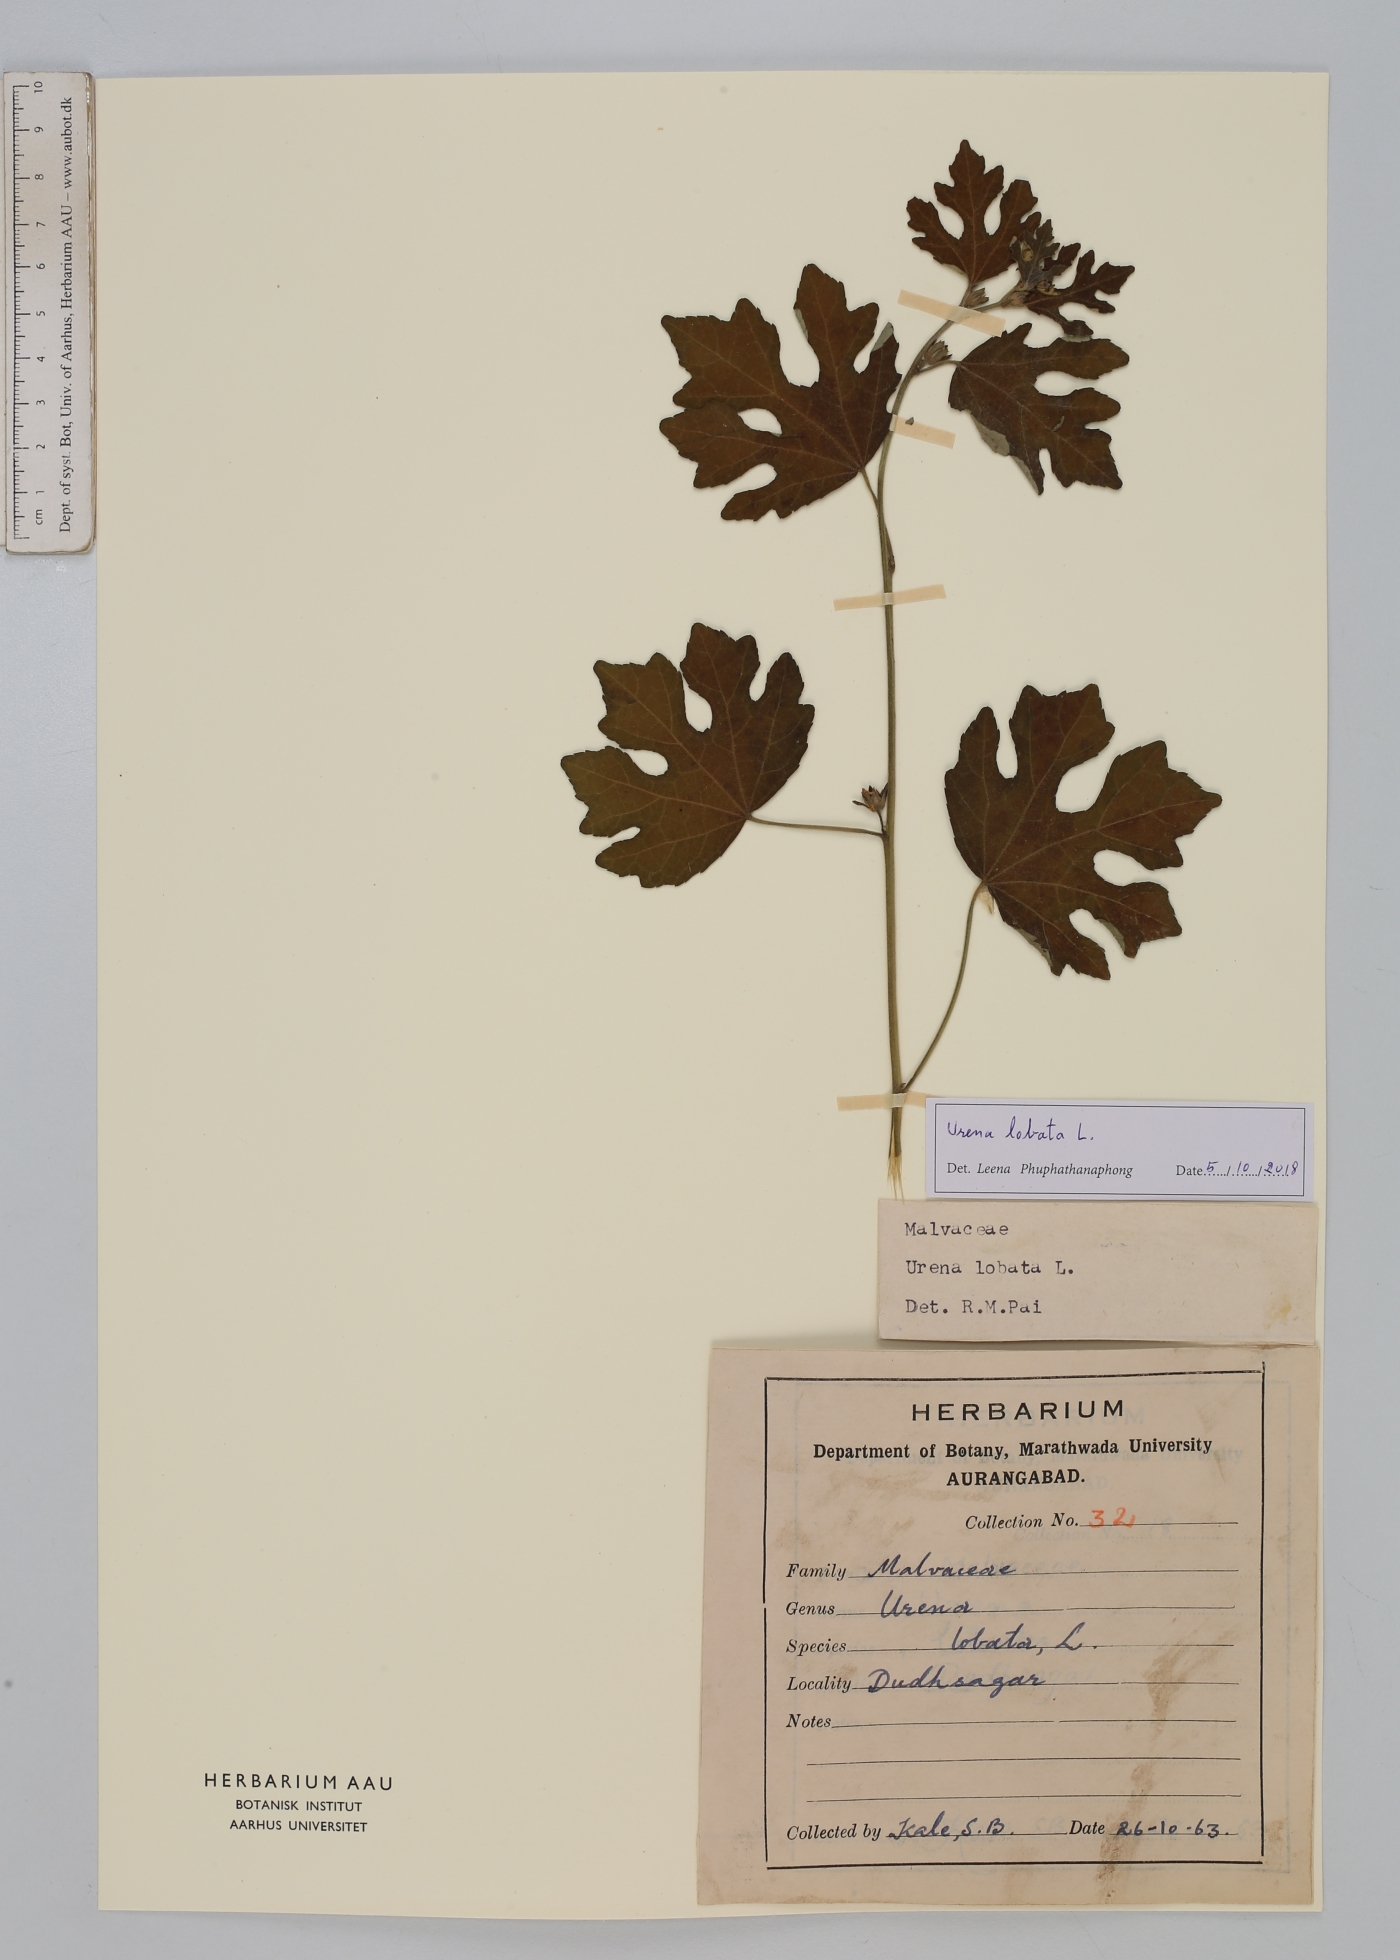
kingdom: Plantae
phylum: Tracheophyta
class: Magnoliopsida
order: Malvales
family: Malvaceae
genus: Urena
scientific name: Urena lobata
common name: Caesarweed
